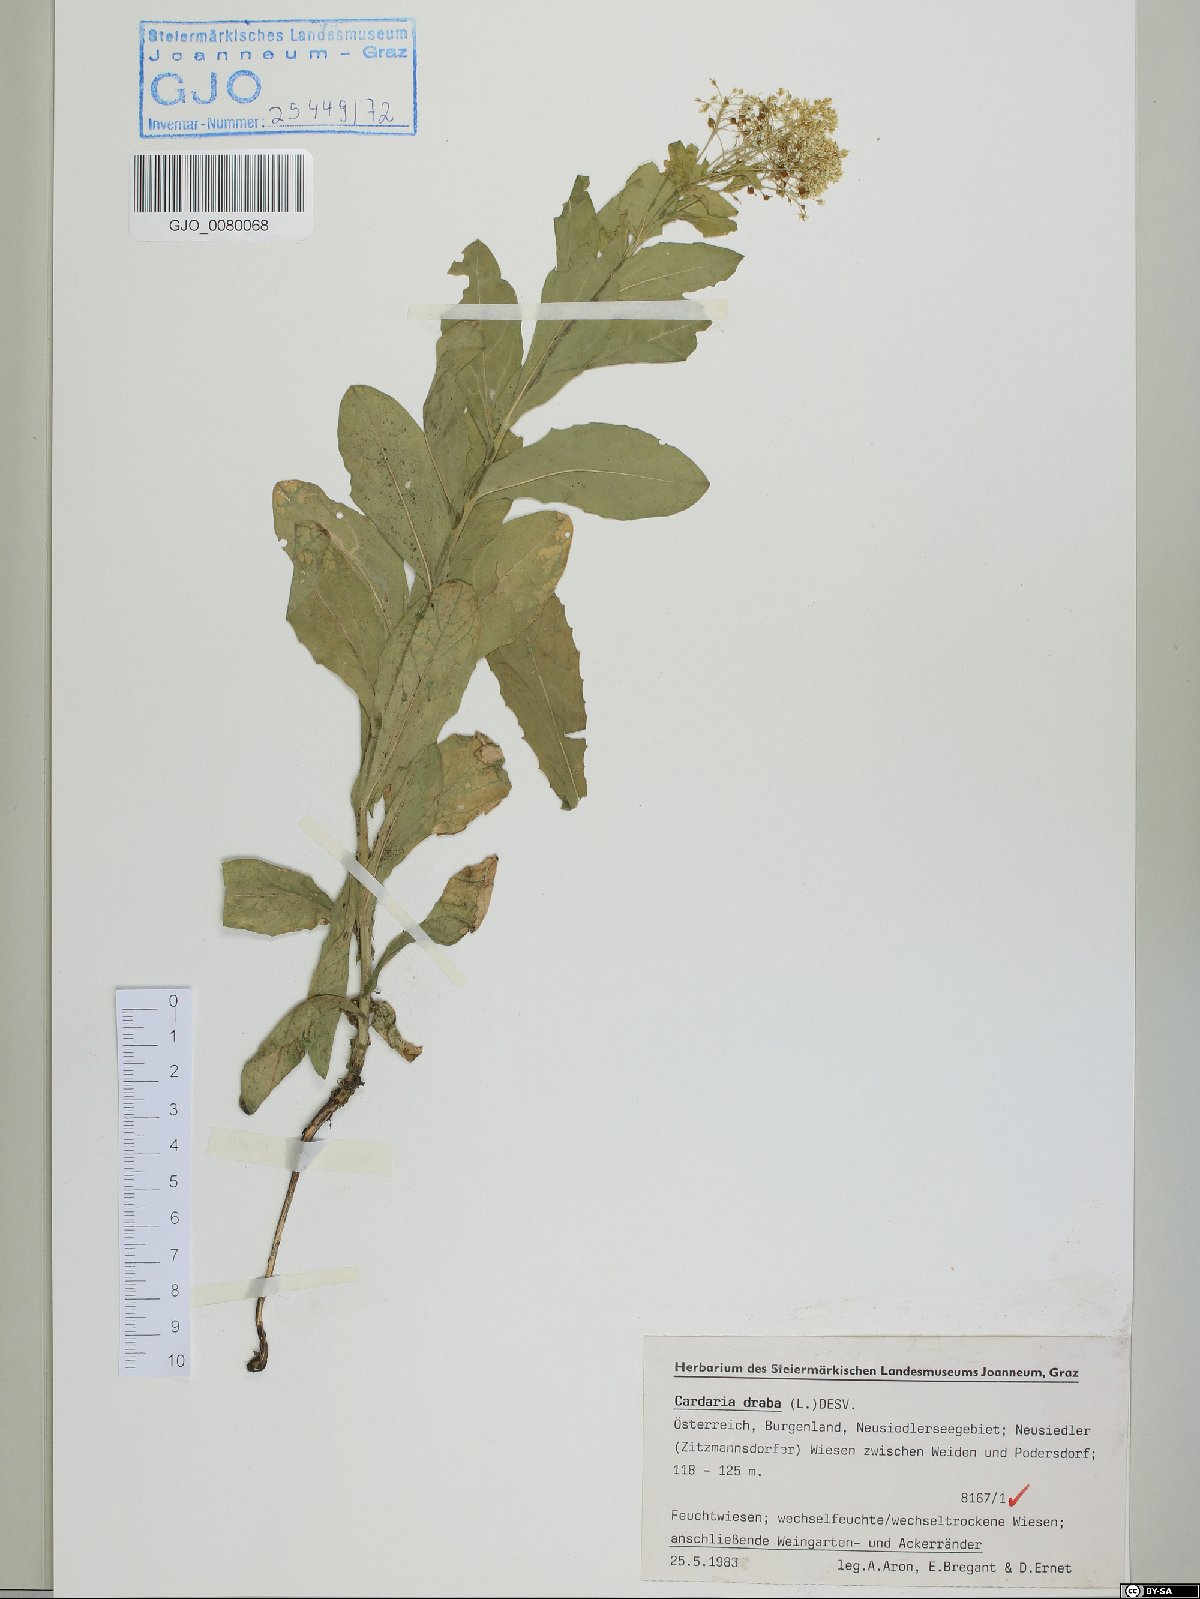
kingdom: Plantae
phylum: Tracheophyta
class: Magnoliopsida
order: Brassicales
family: Brassicaceae
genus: Lepidium
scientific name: Lepidium draba
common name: Hoary cress
